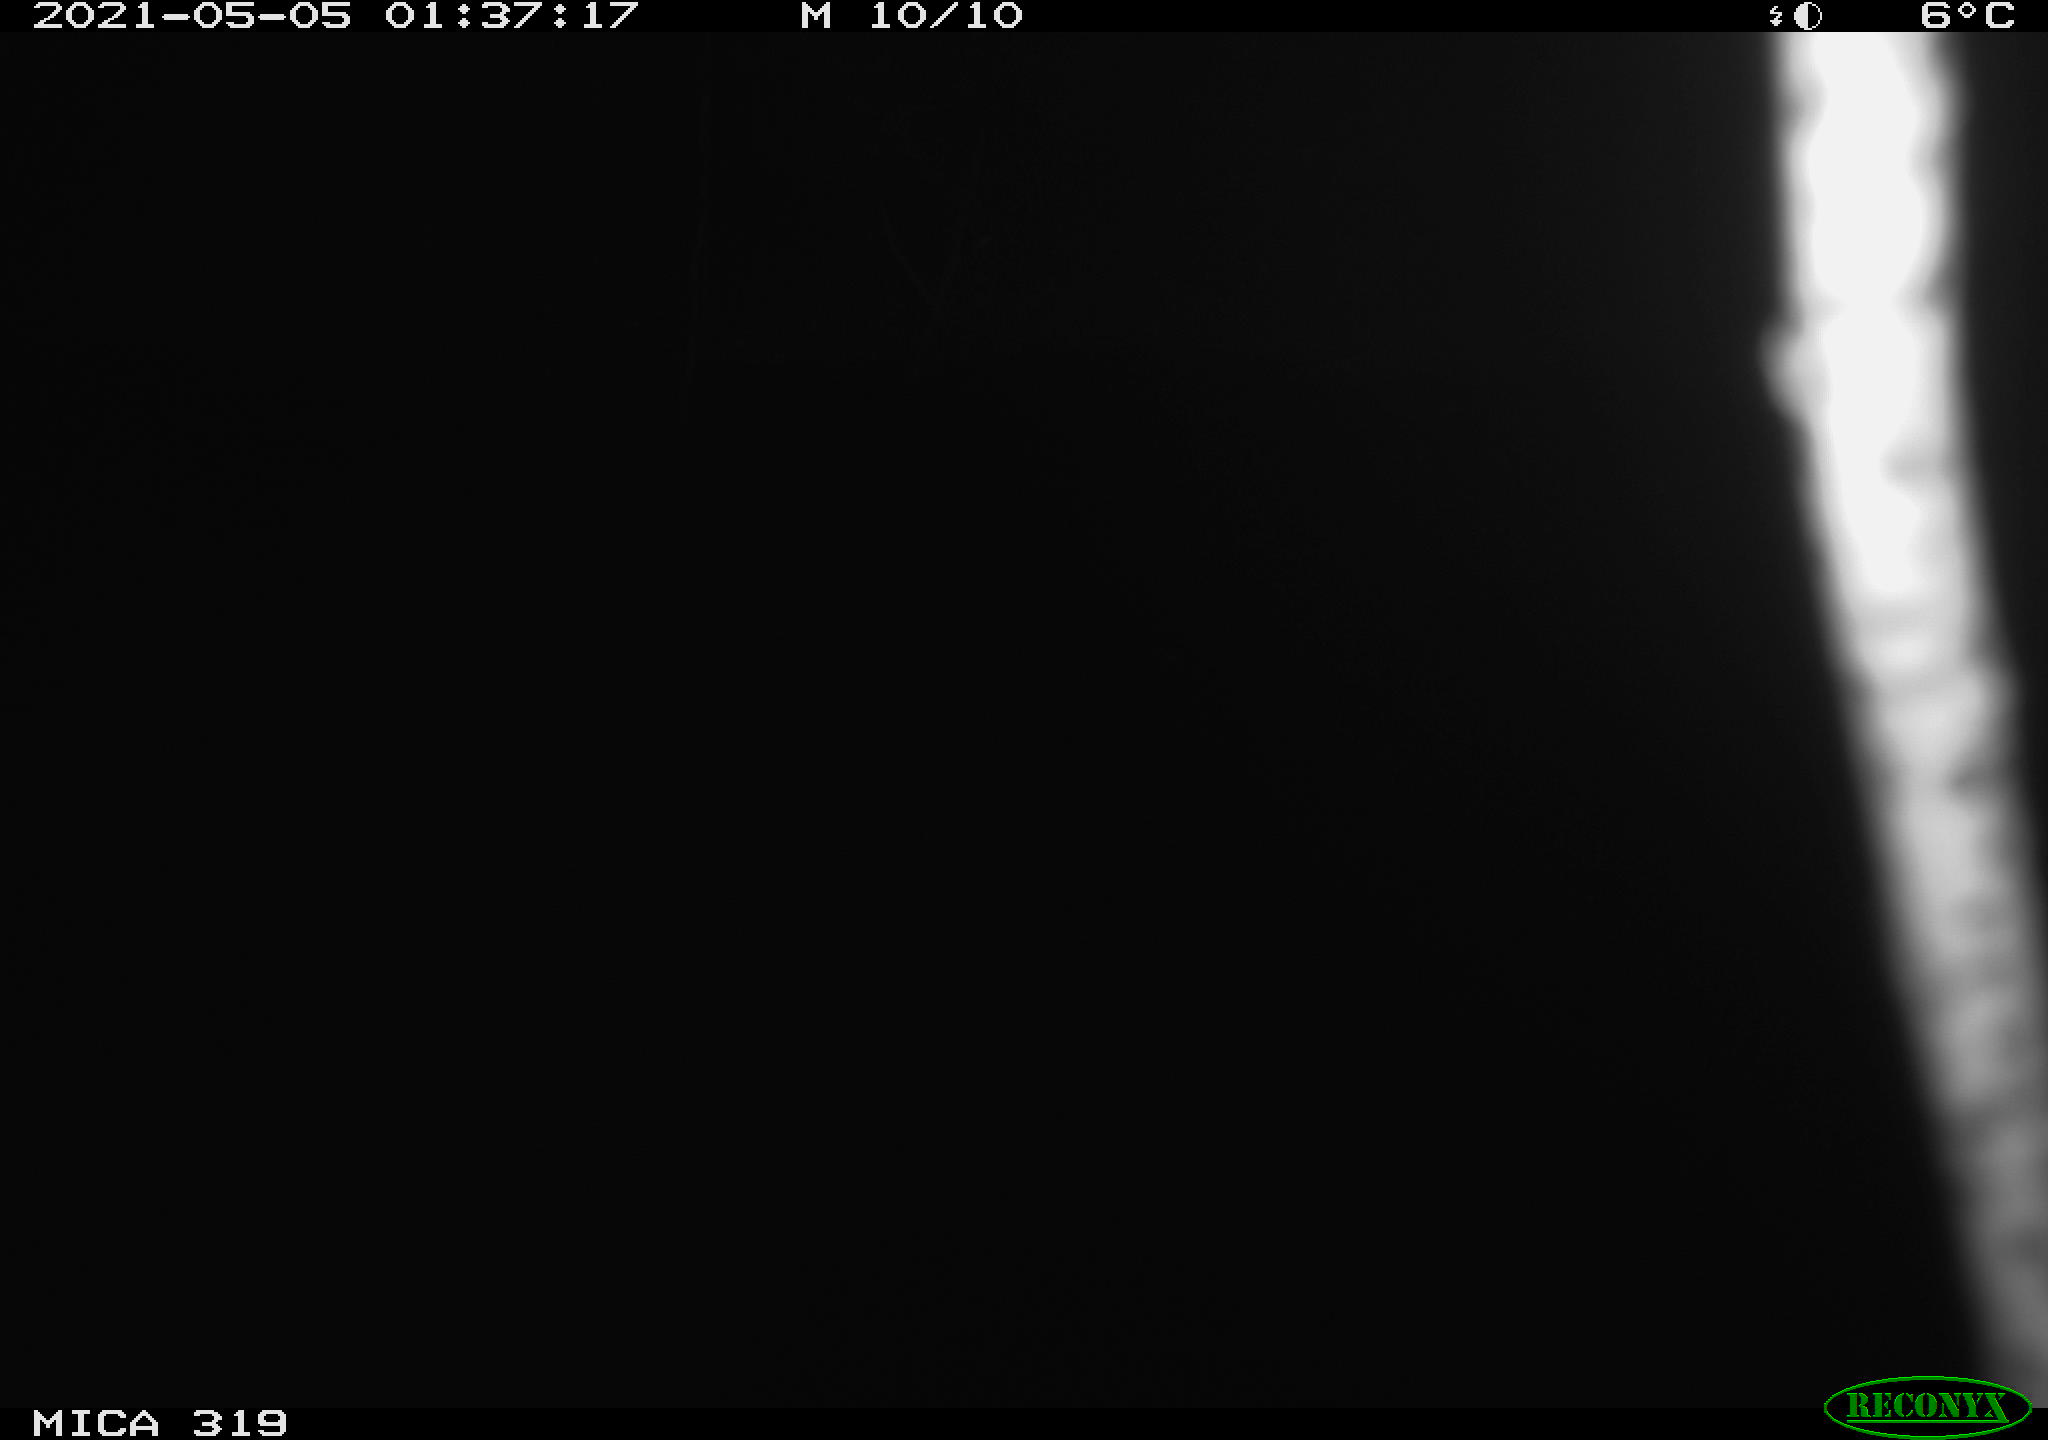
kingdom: Animalia
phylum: Chordata
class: Aves
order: Anseriformes
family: Anatidae
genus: Anas
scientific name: Anas platyrhynchos
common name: Mallard
